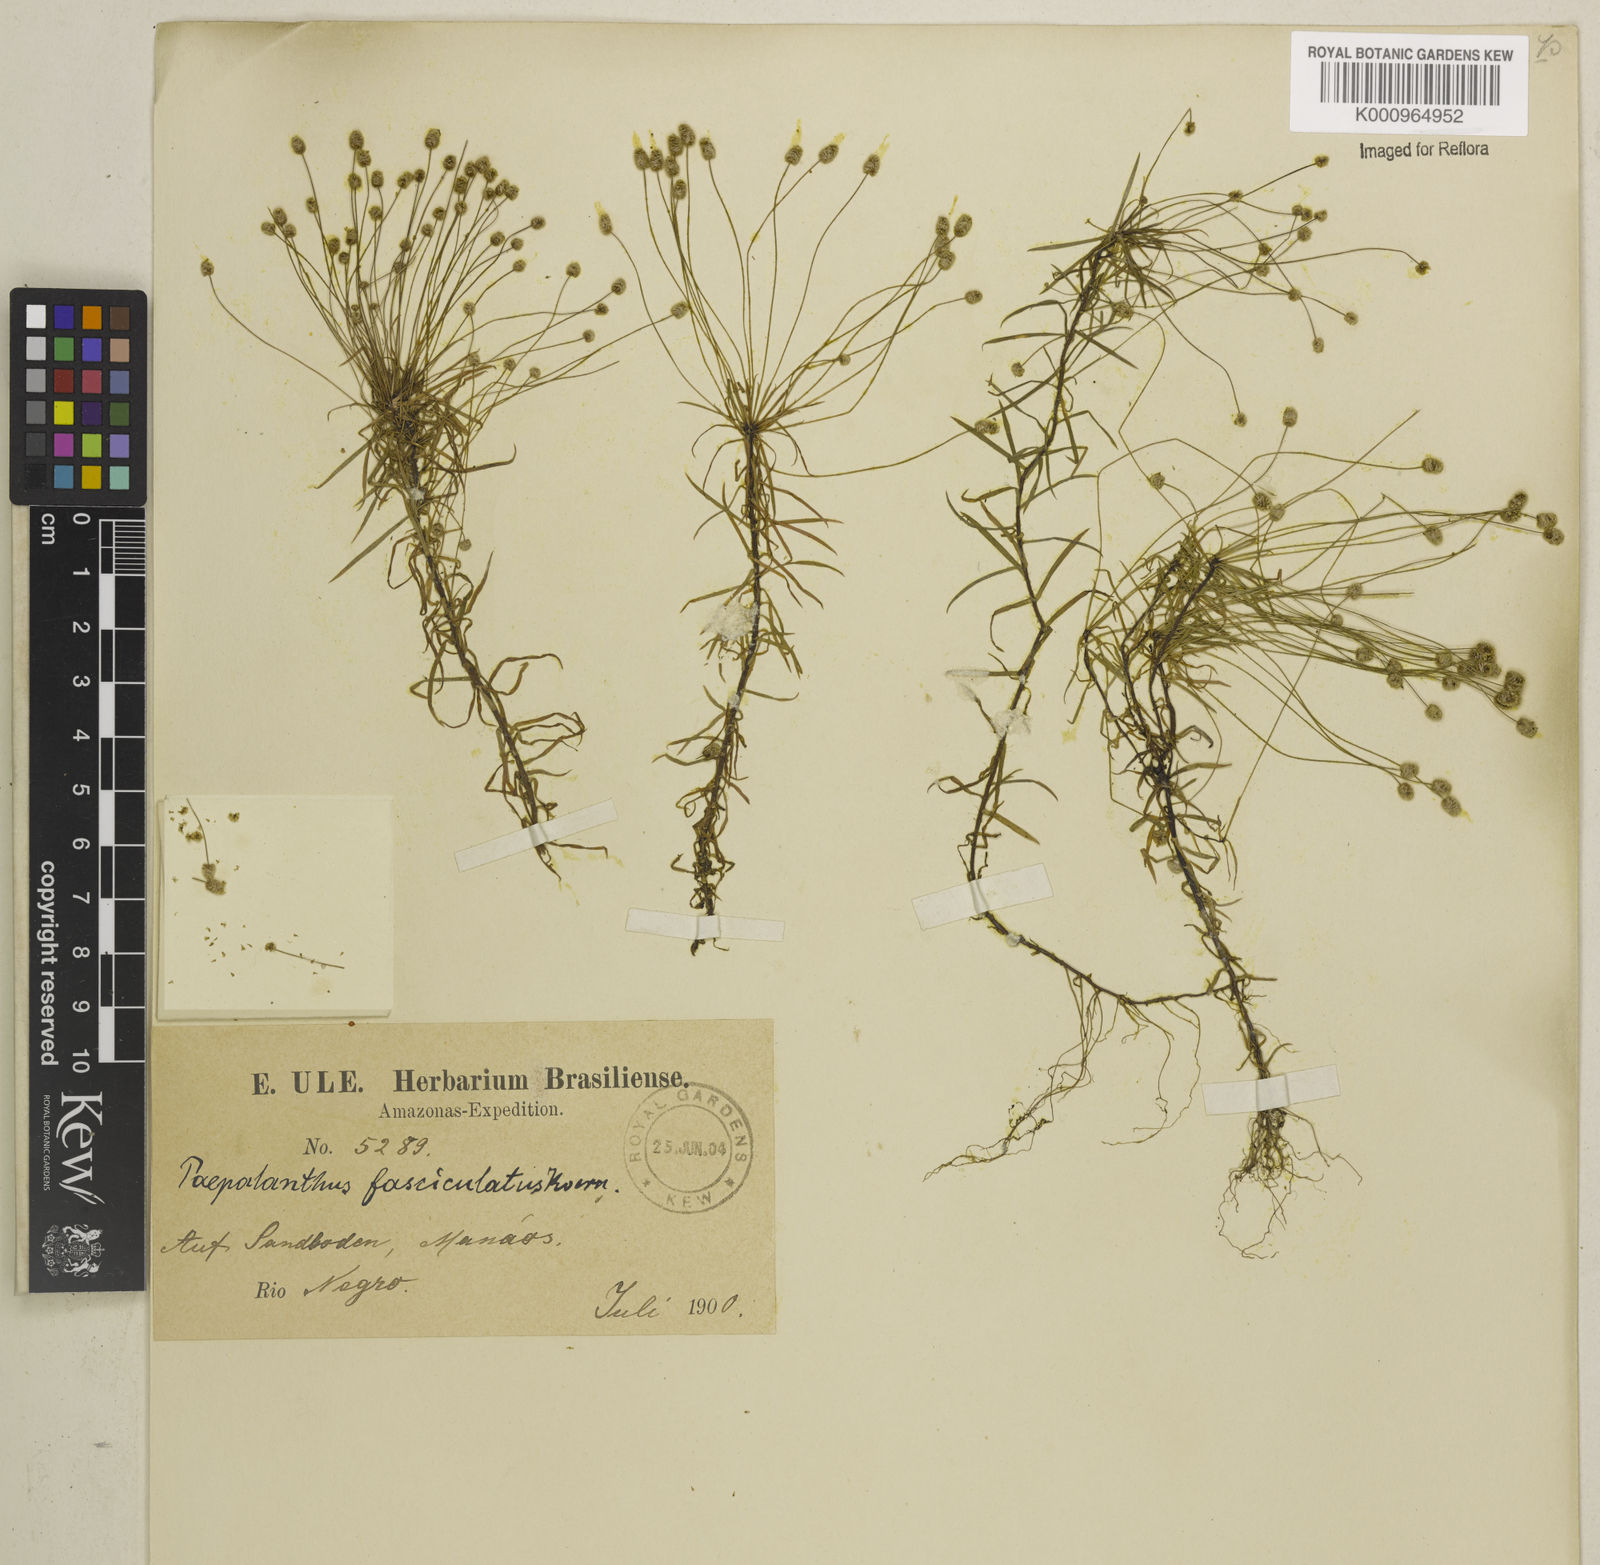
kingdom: Plantae
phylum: Tracheophyta
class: Liliopsida
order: Poales
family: Eriocaulaceae
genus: Paepalanthus
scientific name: Paepalanthus fasciculatus
